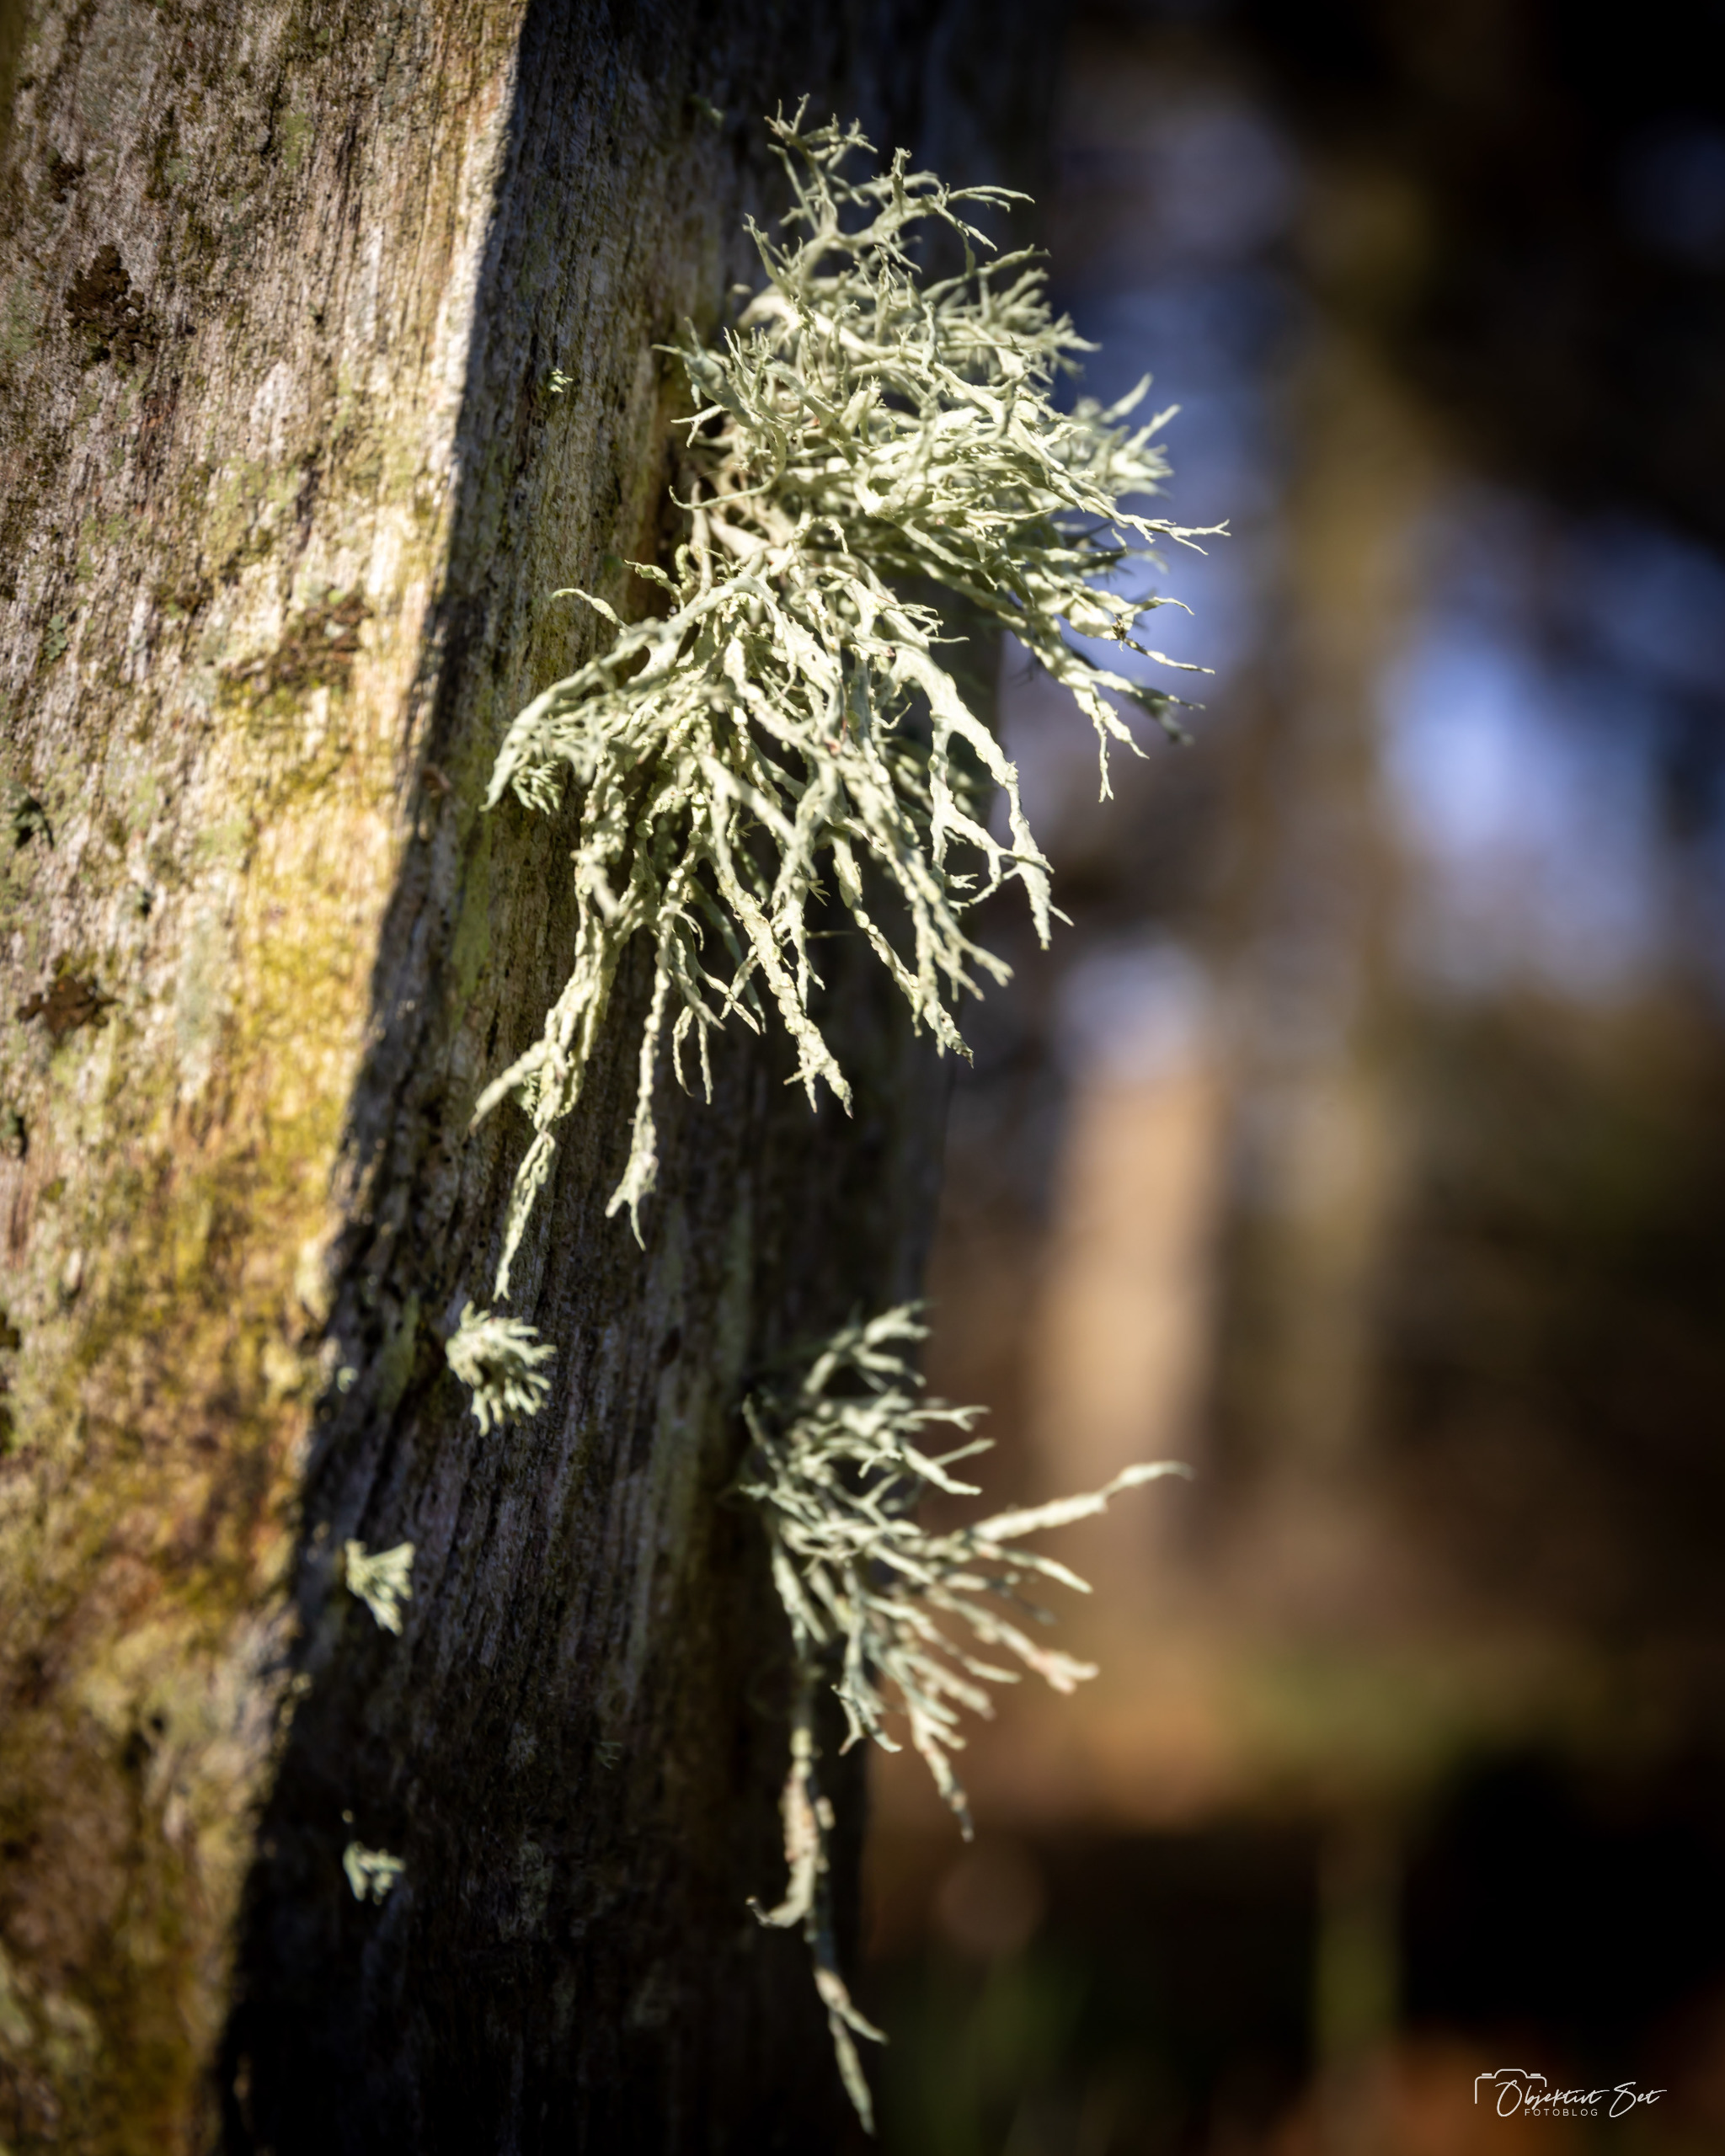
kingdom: Fungi
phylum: Ascomycota
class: Lecanoromycetes
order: Lecanorales
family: Ramalinaceae
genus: Ramalina
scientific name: Ramalina farinacea
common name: Melet grenlav
